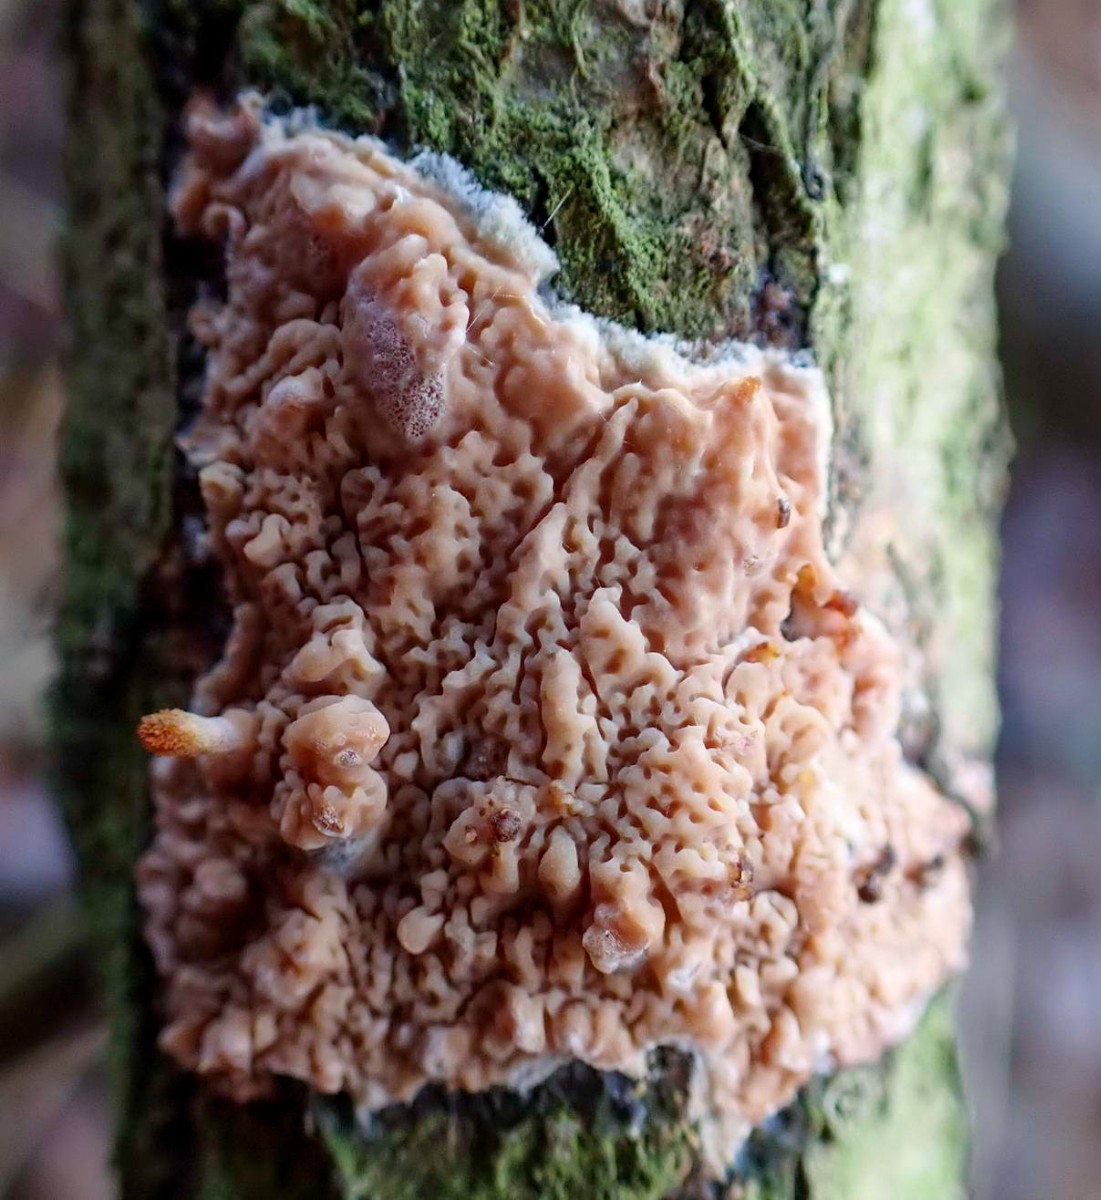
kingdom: Fungi
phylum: Basidiomycota
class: Agaricomycetes
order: Polyporales
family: Meruliaceae
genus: Phlebia
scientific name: Phlebia rufa
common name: ege-åresvamp
